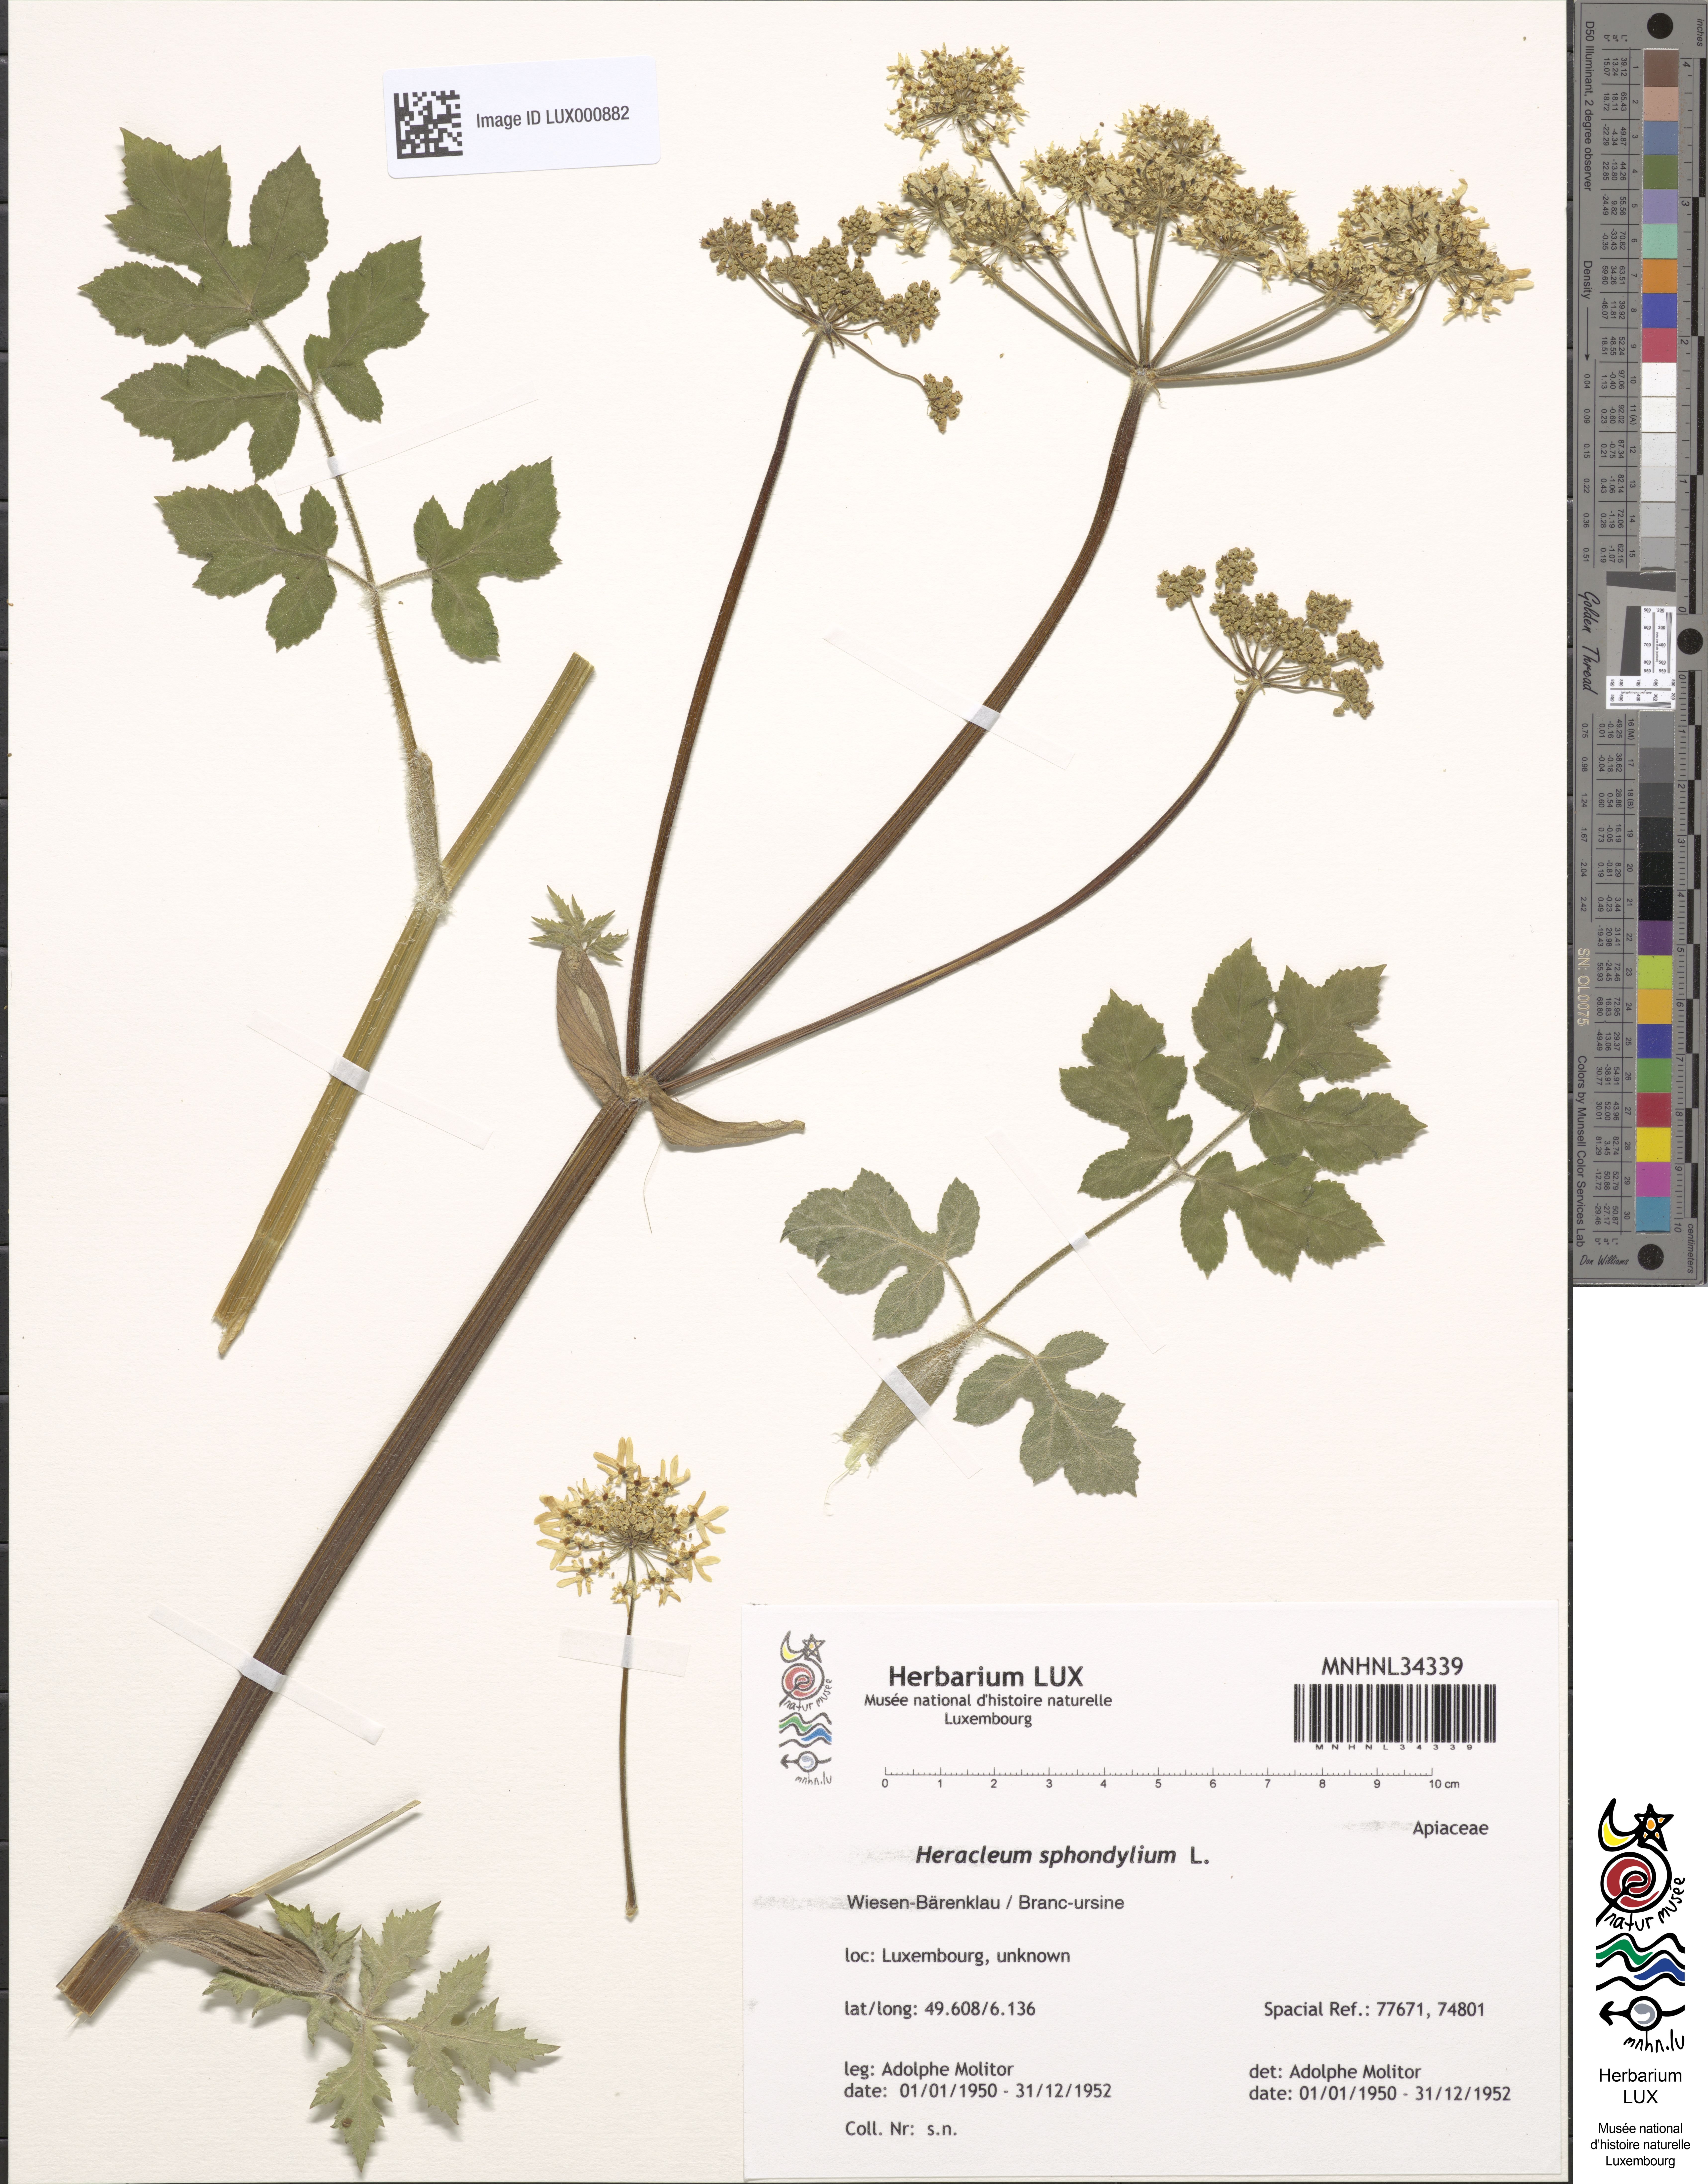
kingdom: Plantae
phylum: Tracheophyta
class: Magnoliopsida
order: Apiales
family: Apiaceae
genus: Heracleum
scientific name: Heracleum sphondylium
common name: Hogweed
